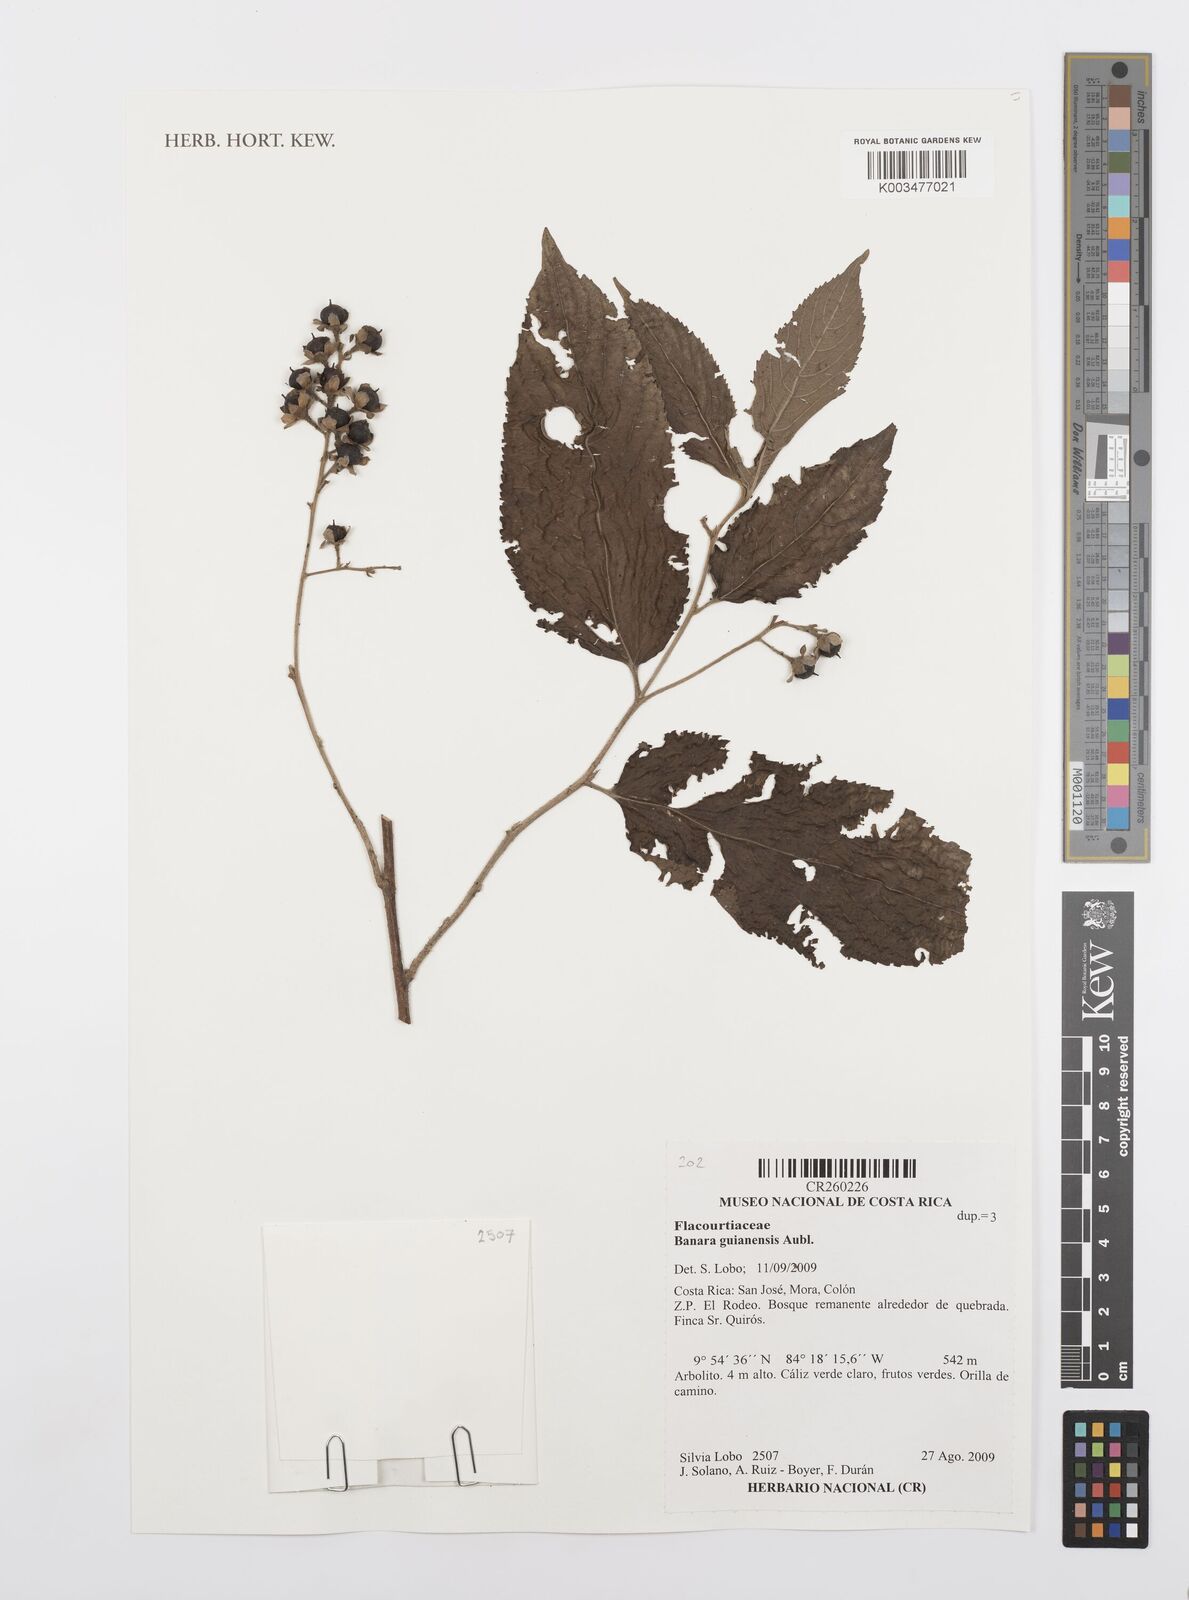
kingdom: Plantae
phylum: Tracheophyta
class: Magnoliopsida
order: Malpighiales
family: Salicaceae
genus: Banara
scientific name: Banara guianensis
